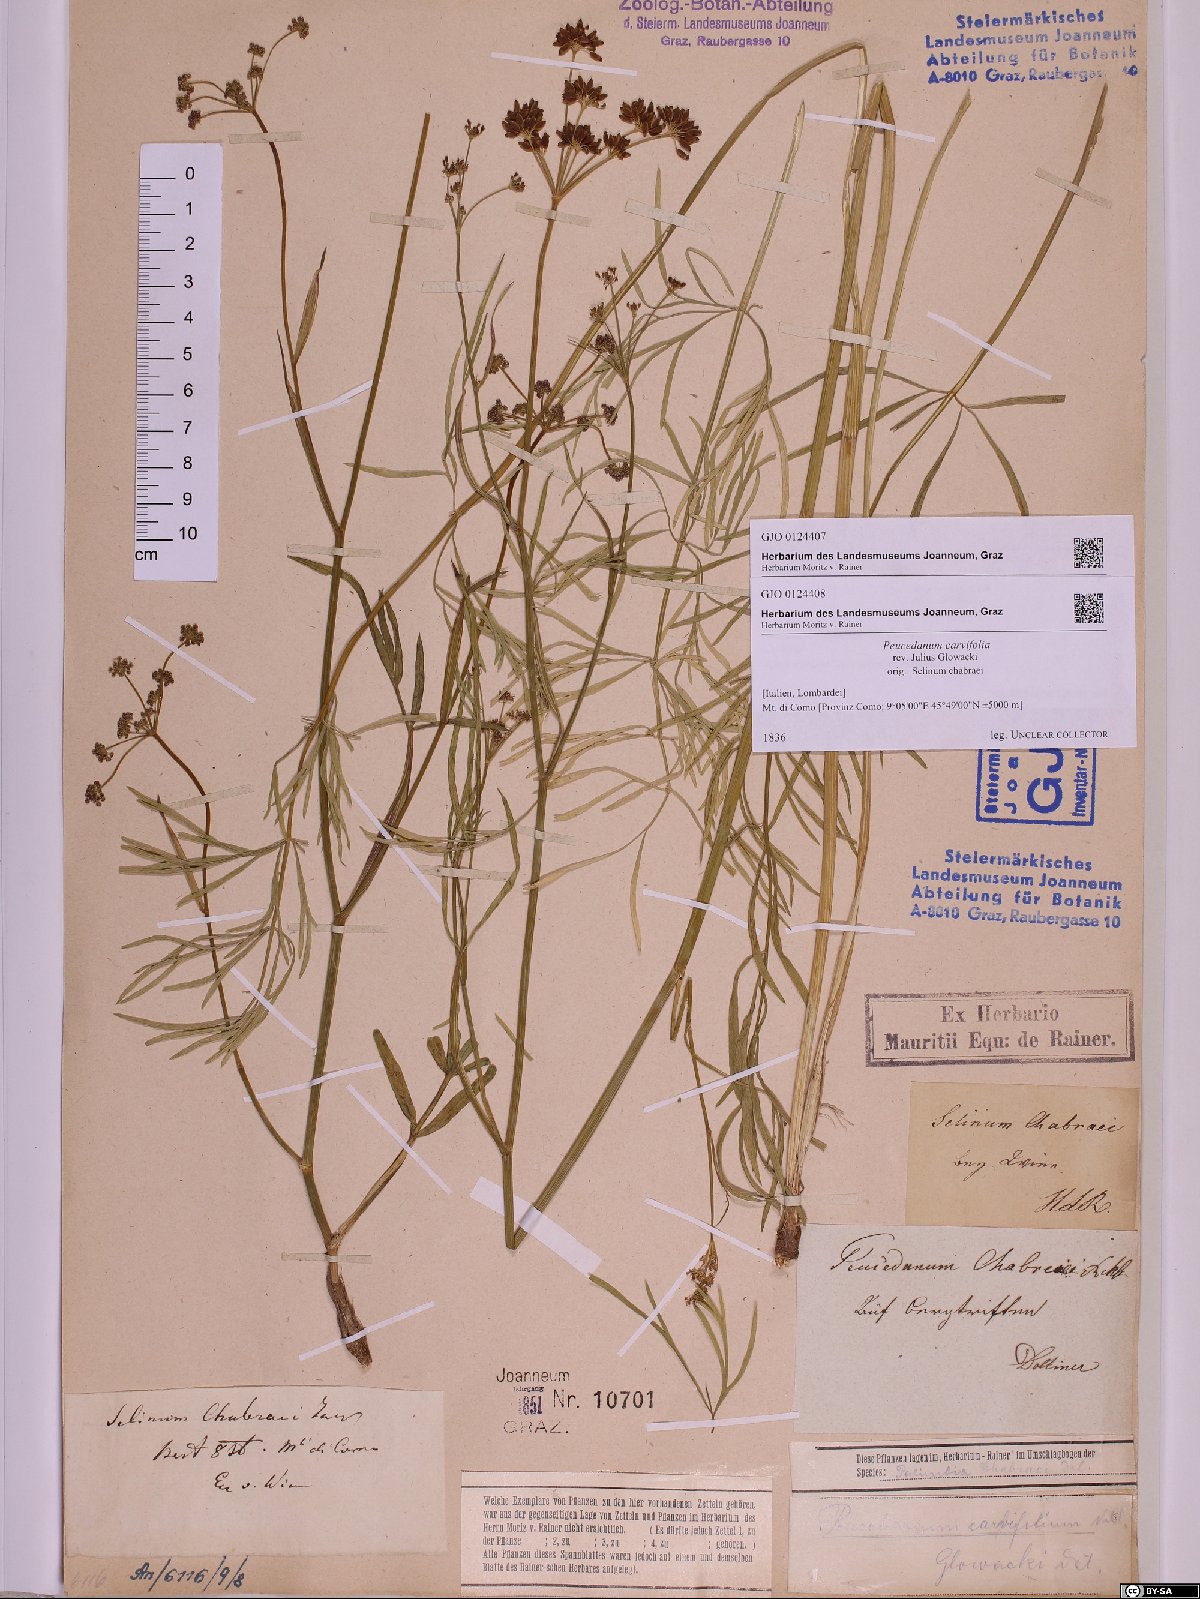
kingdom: Plantae
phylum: Tracheophyta
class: Magnoliopsida
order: Apiales
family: Apiaceae
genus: Dichoropetalum
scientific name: Dichoropetalum carvifolia
